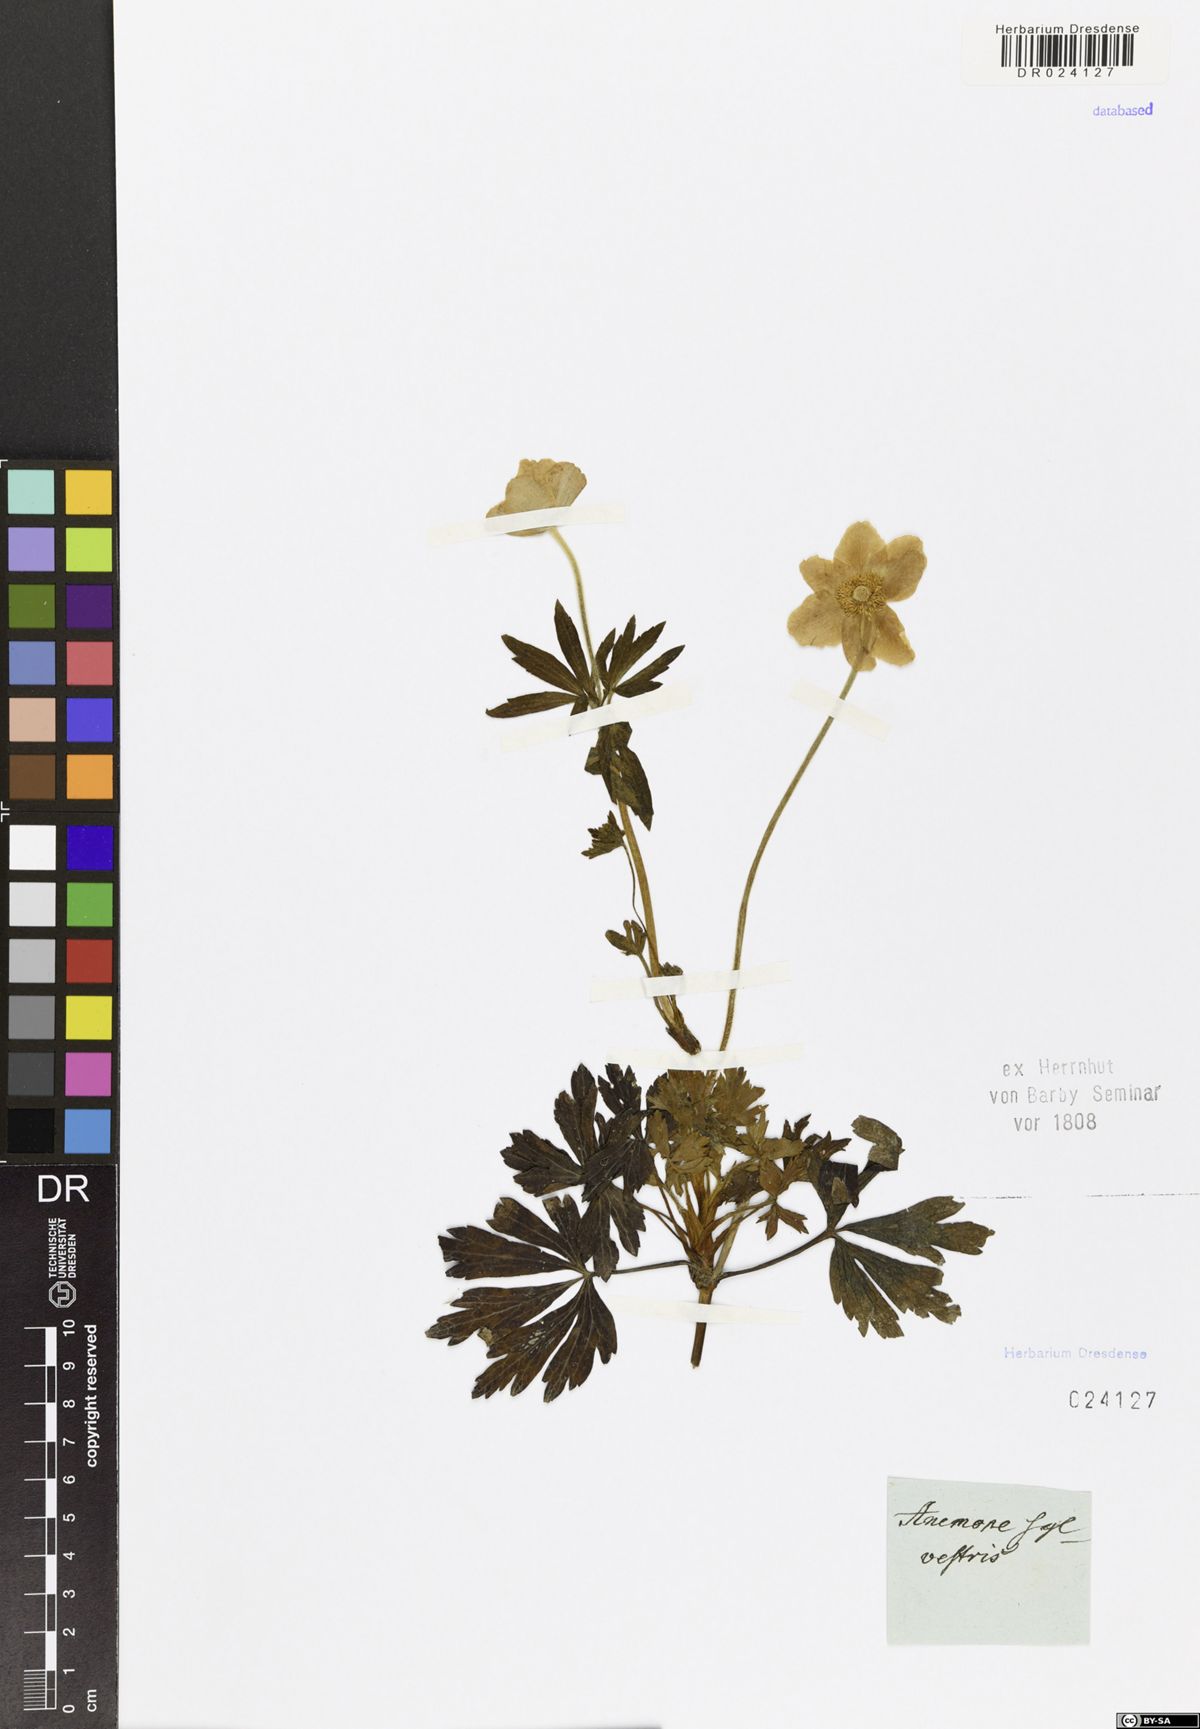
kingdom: Plantae
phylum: Tracheophyta
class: Magnoliopsida
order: Ranunculales
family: Ranunculaceae
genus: Anemone
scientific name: Anemone sylvestris
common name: Snowdrop anemone
